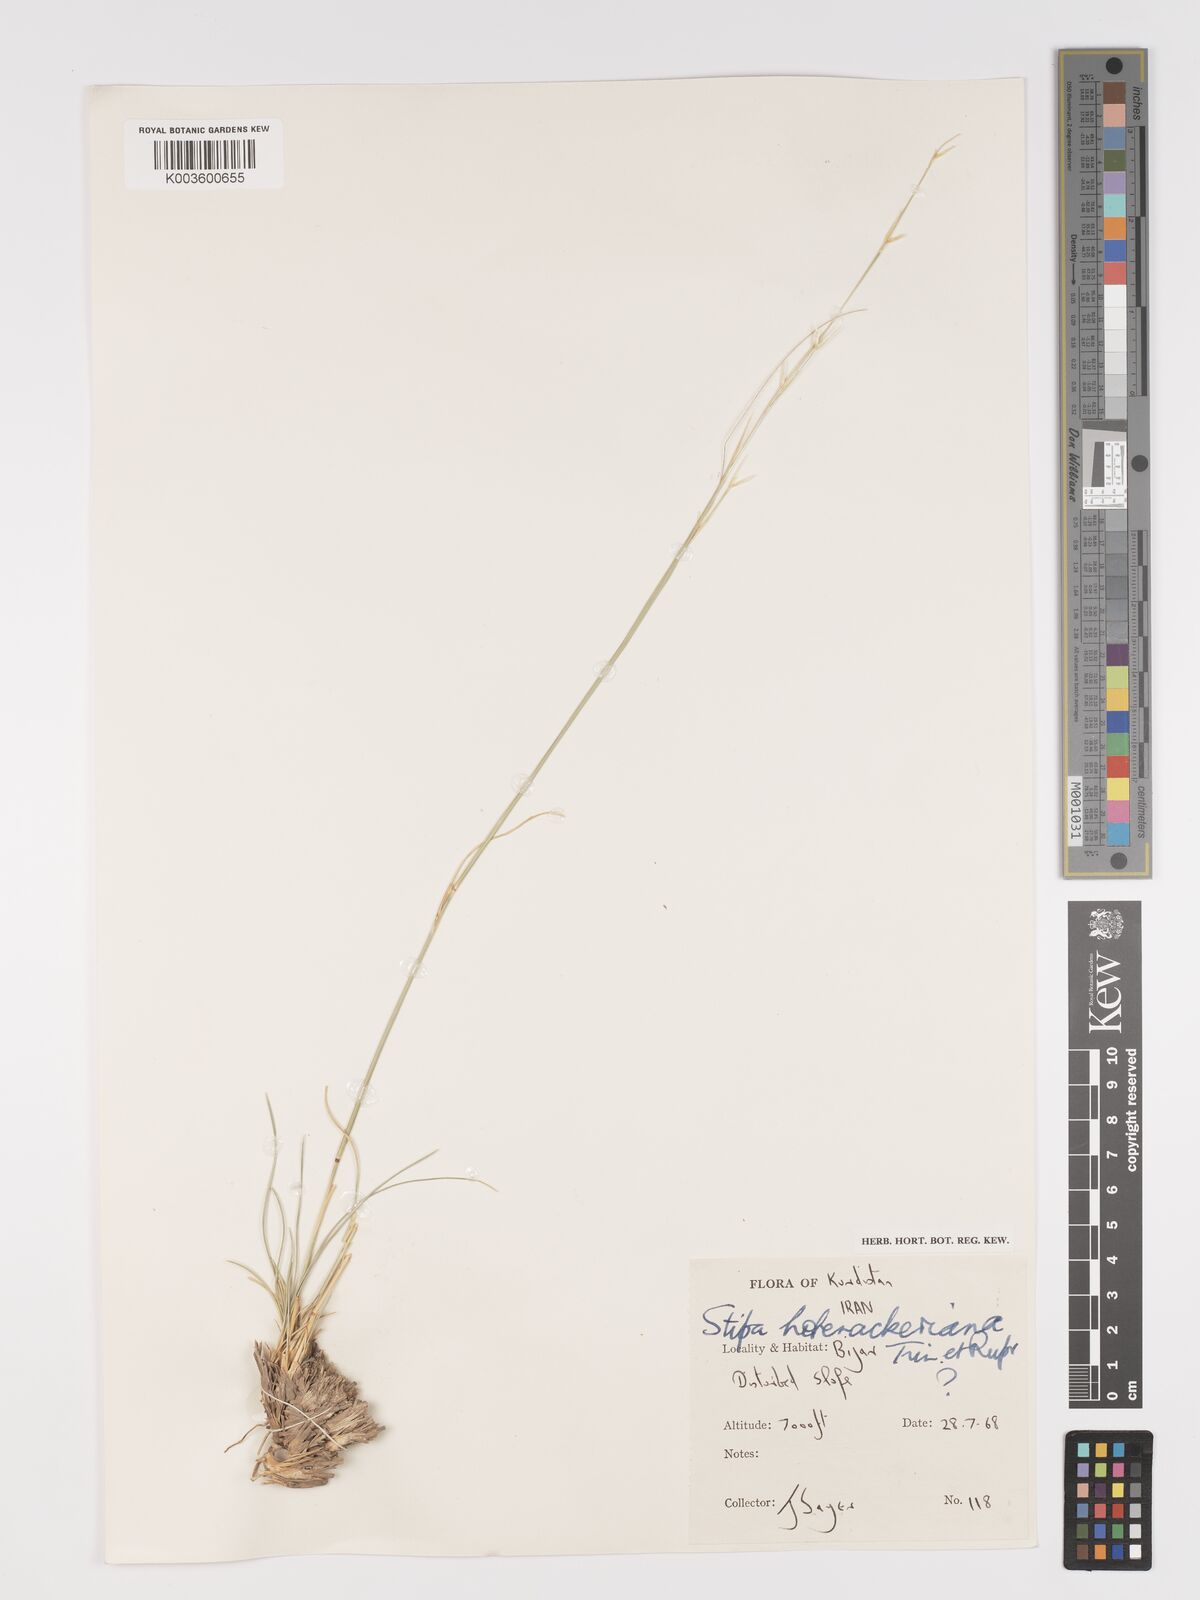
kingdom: Plantae
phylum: Tracheophyta
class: Liliopsida
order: Poales
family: Poaceae
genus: Stipa
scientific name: Stipa hohenackeriana
